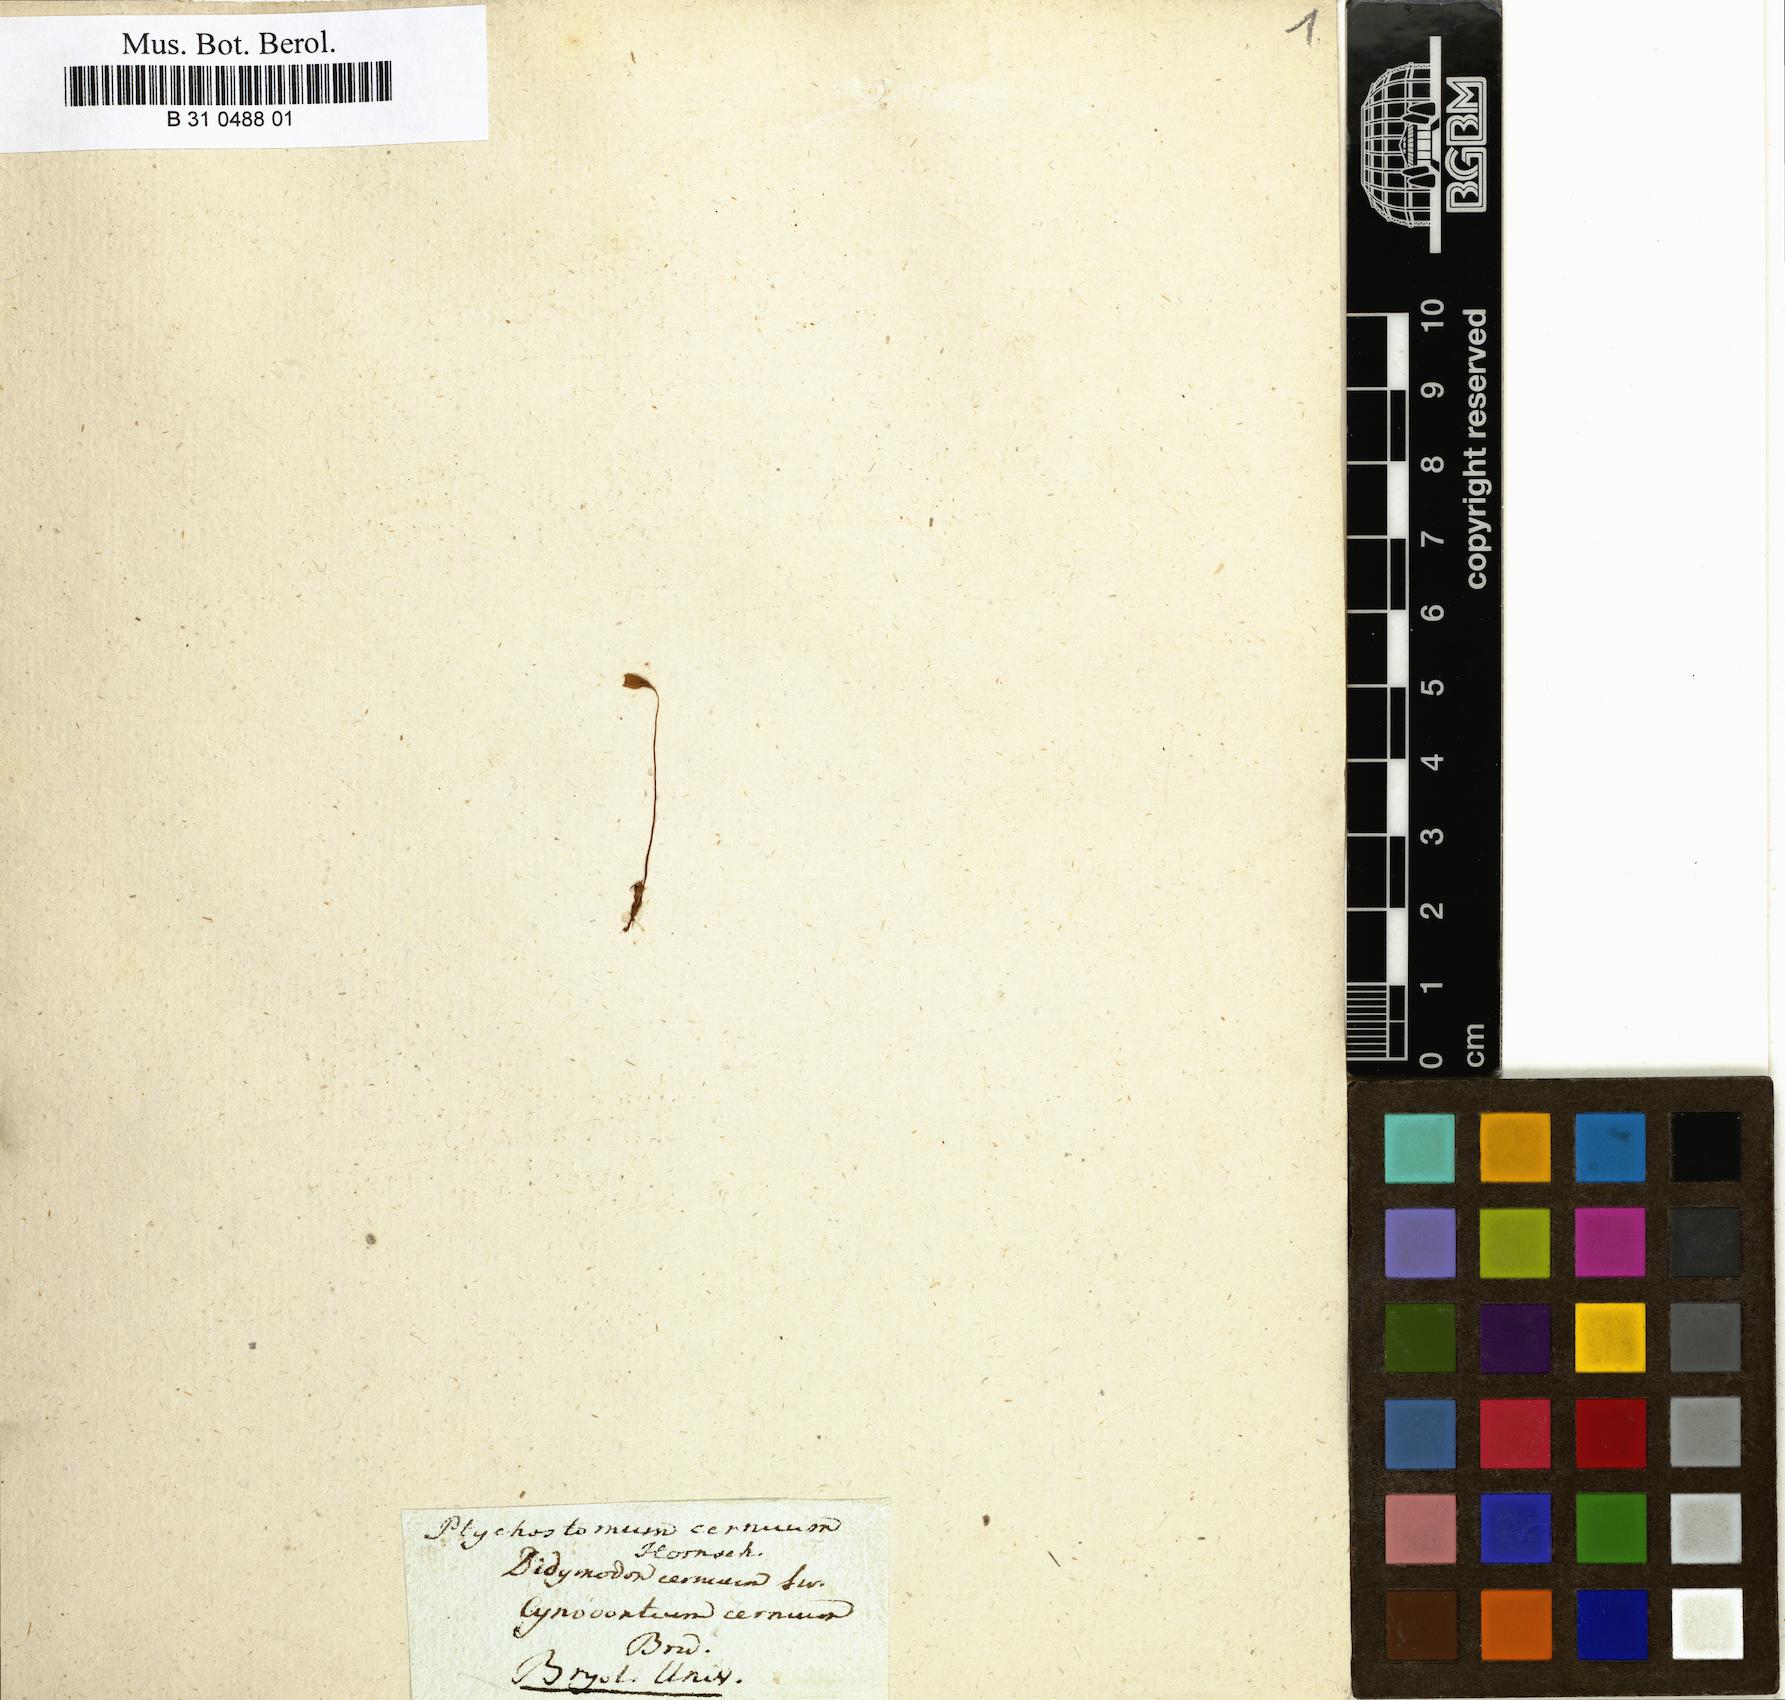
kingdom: Plantae
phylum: Bryophyta
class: Bryopsida
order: Bryales
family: Bryaceae
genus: Ptychostomum
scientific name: Ptychostomum cernuum
